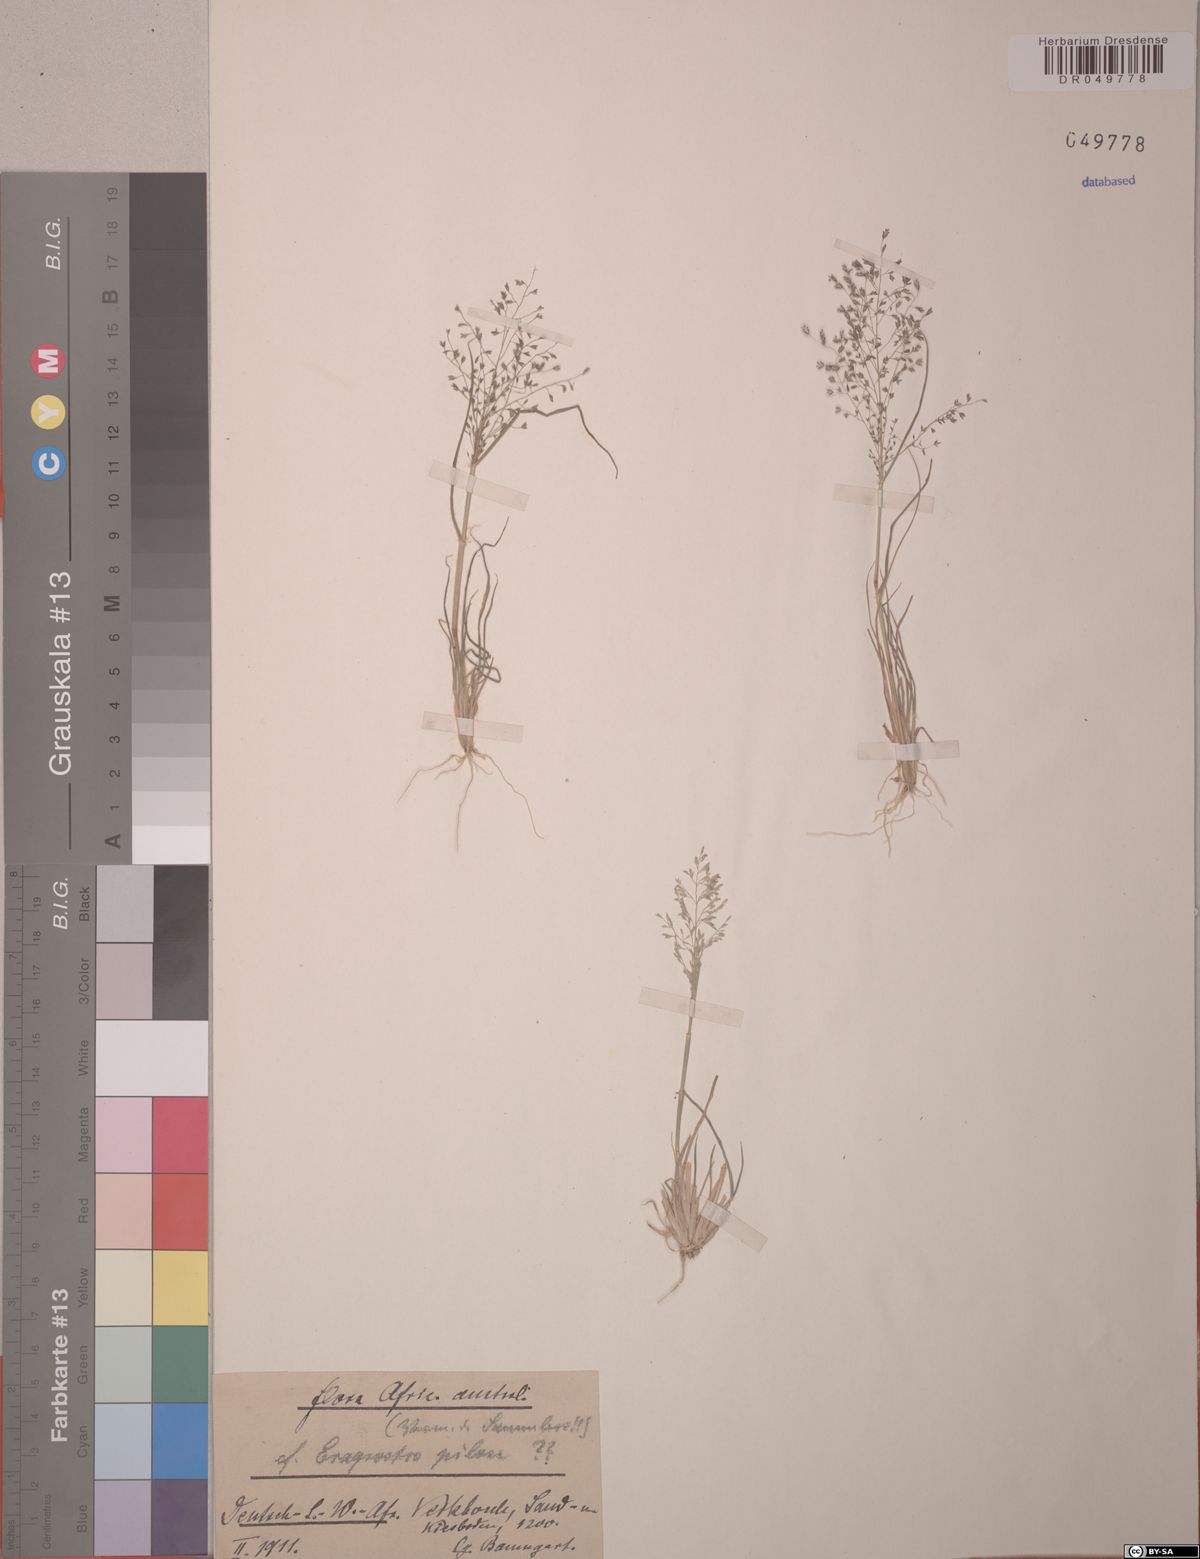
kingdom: Plantae
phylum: Tracheophyta
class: Liliopsida
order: Poales
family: Poaceae
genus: Eragrostis
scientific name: Eragrostis pilosa
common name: Indian lovegrass
